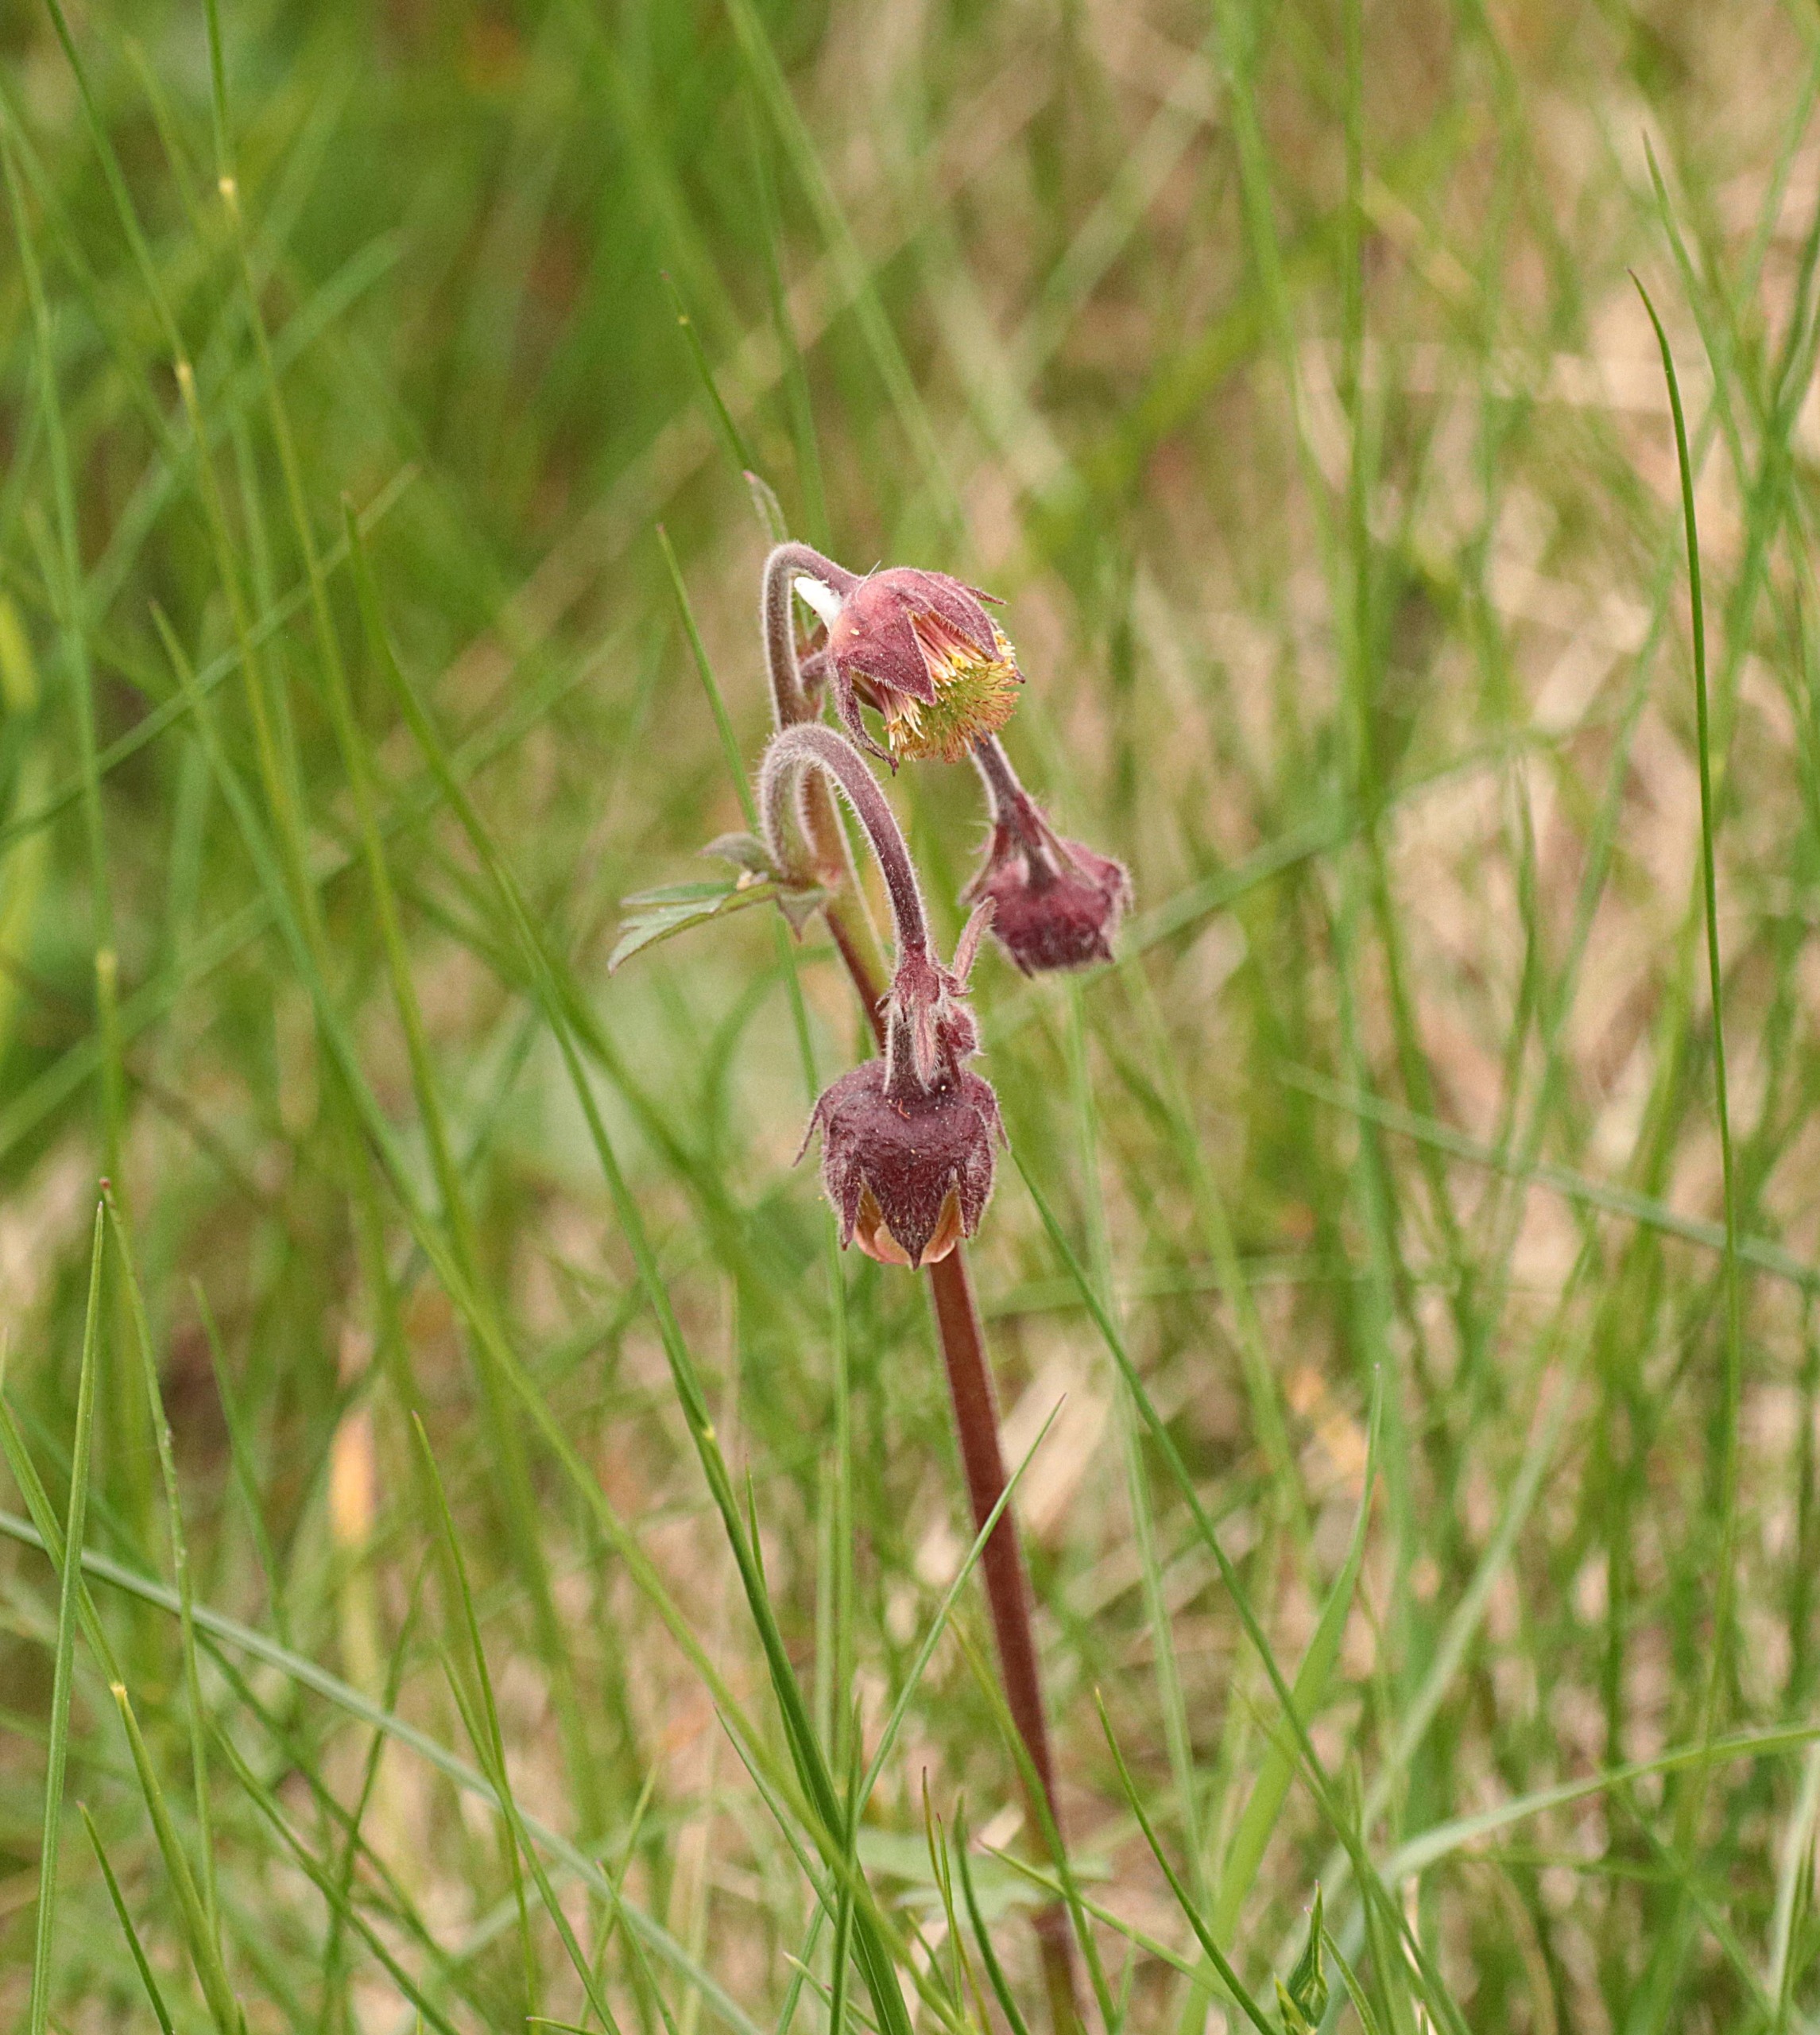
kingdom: Plantae
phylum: Tracheophyta
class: Magnoliopsida
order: Rosales
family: Rosaceae
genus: Geum
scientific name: Geum rivale
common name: Eng-nellikerod
